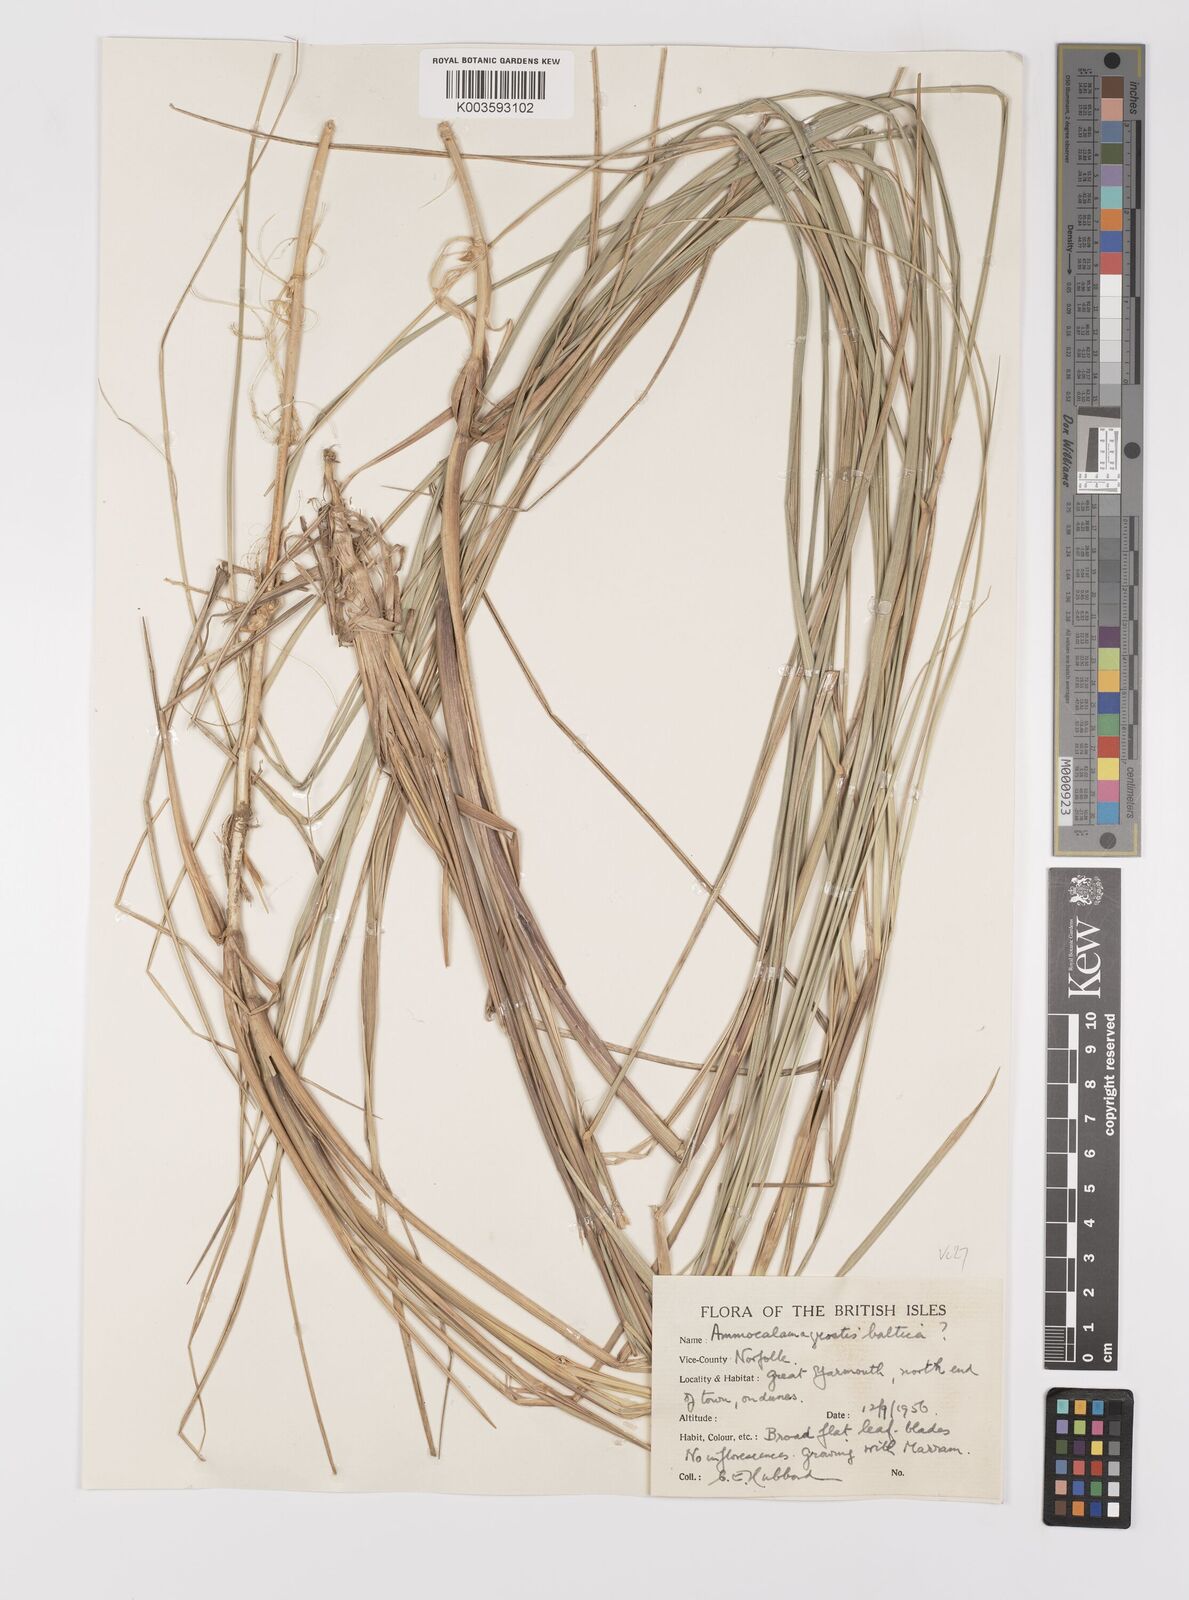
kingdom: Plantae
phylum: Tracheophyta
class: Liliopsida
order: Poales
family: Poaceae
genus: Calamagrostis
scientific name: Calamagrostis baltica
